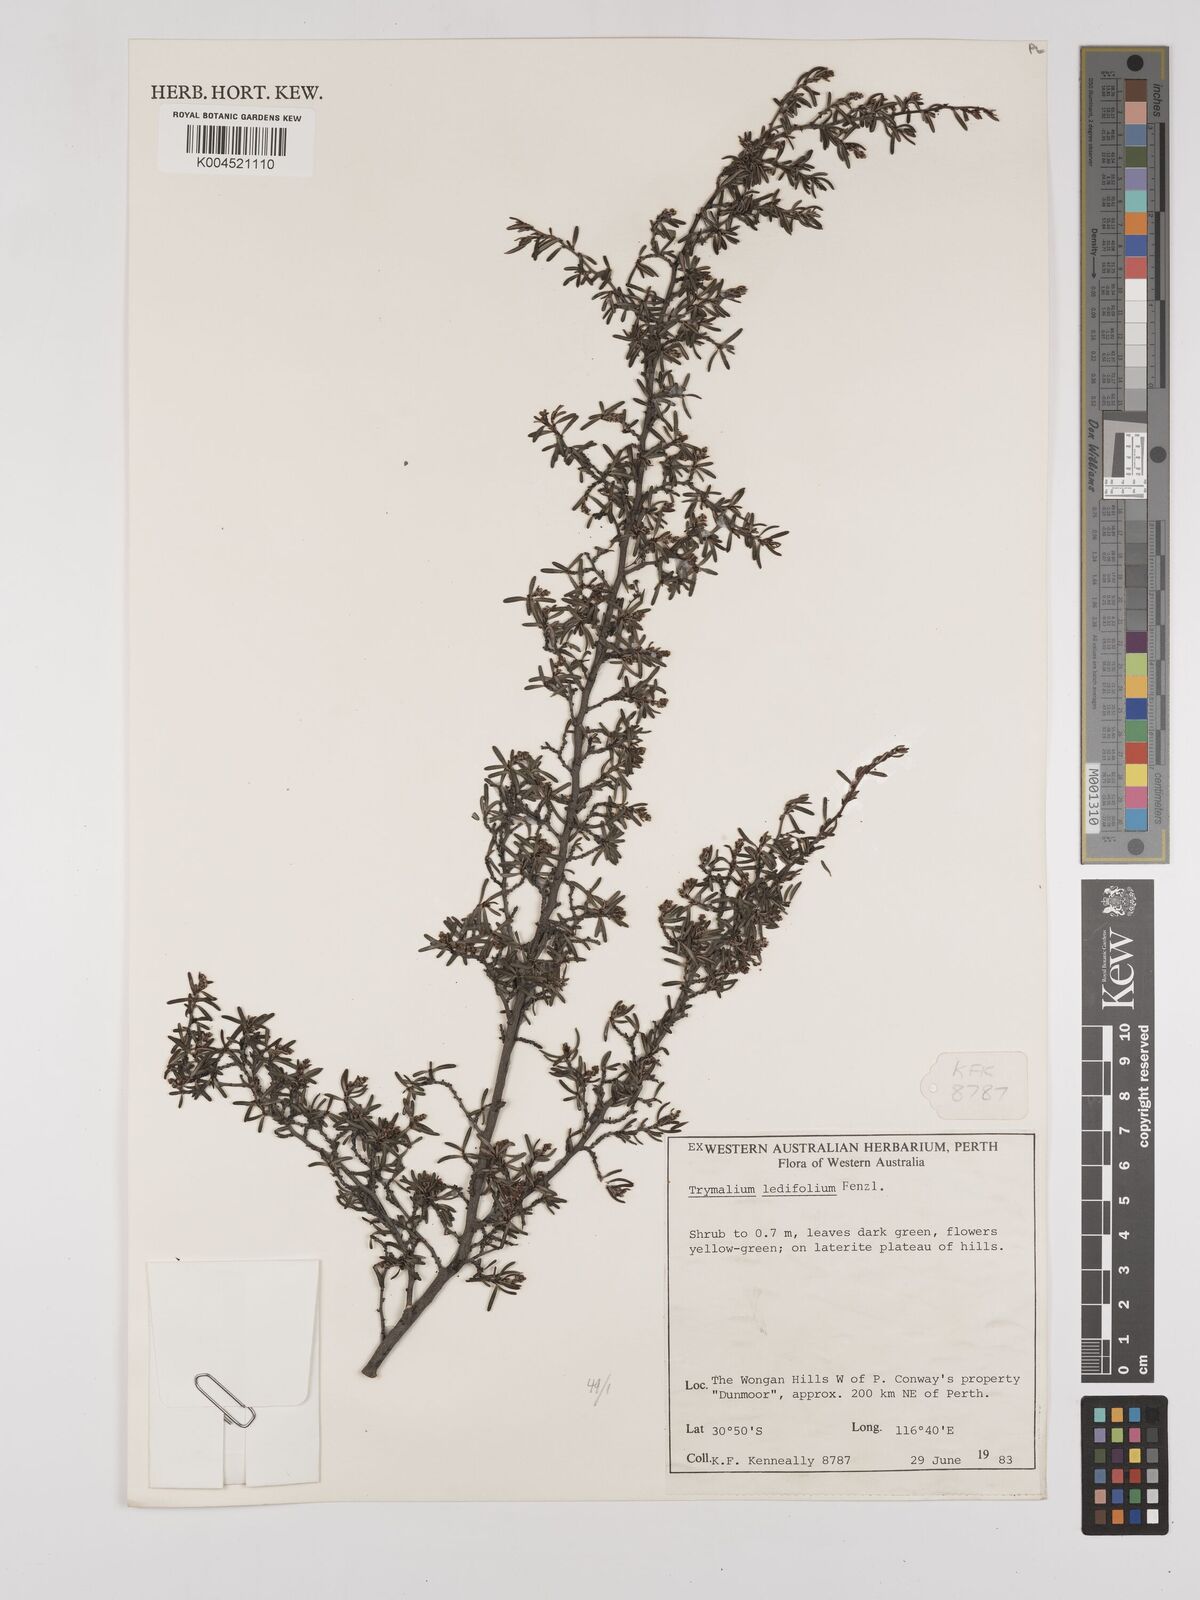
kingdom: Plantae
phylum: Tracheophyta
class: Magnoliopsida
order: Rosales
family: Rhamnaceae
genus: Trymalium
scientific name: Trymalium ledifolium
